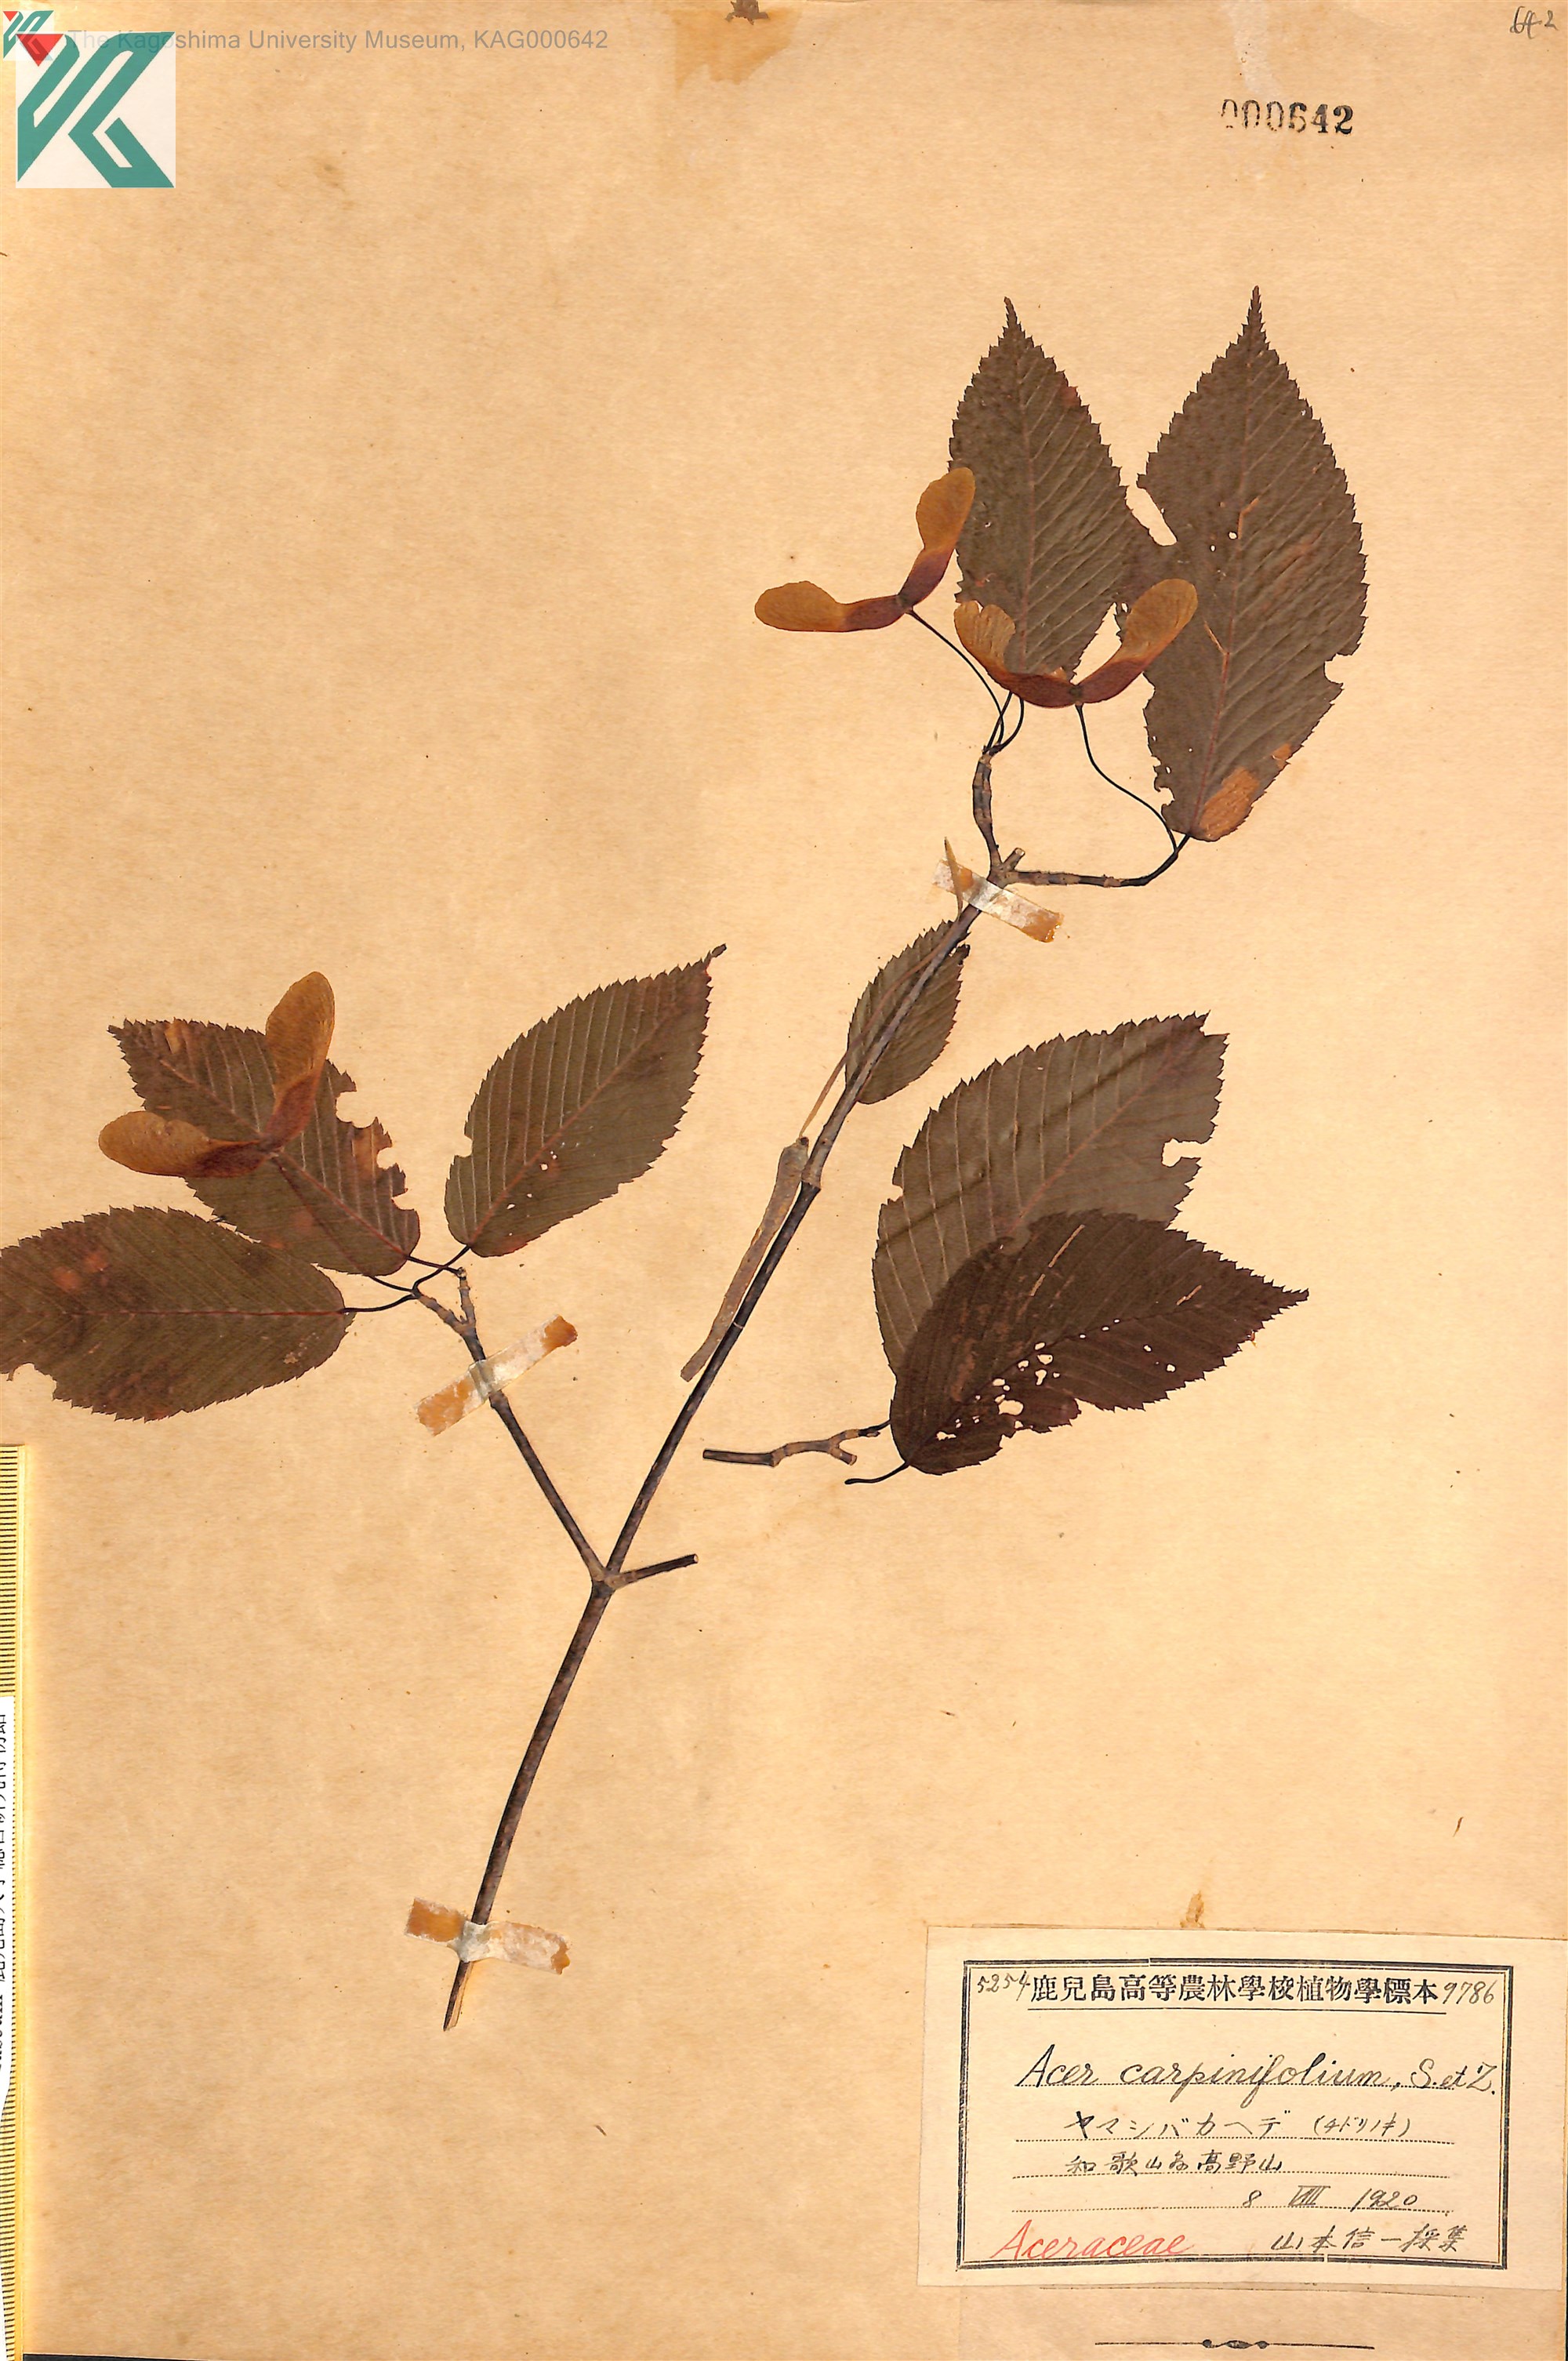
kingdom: Plantae
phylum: Tracheophyta
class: Magnoliopsida
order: Sapindales
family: Sapindaceae
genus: Acer
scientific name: Acer carpinifolium
